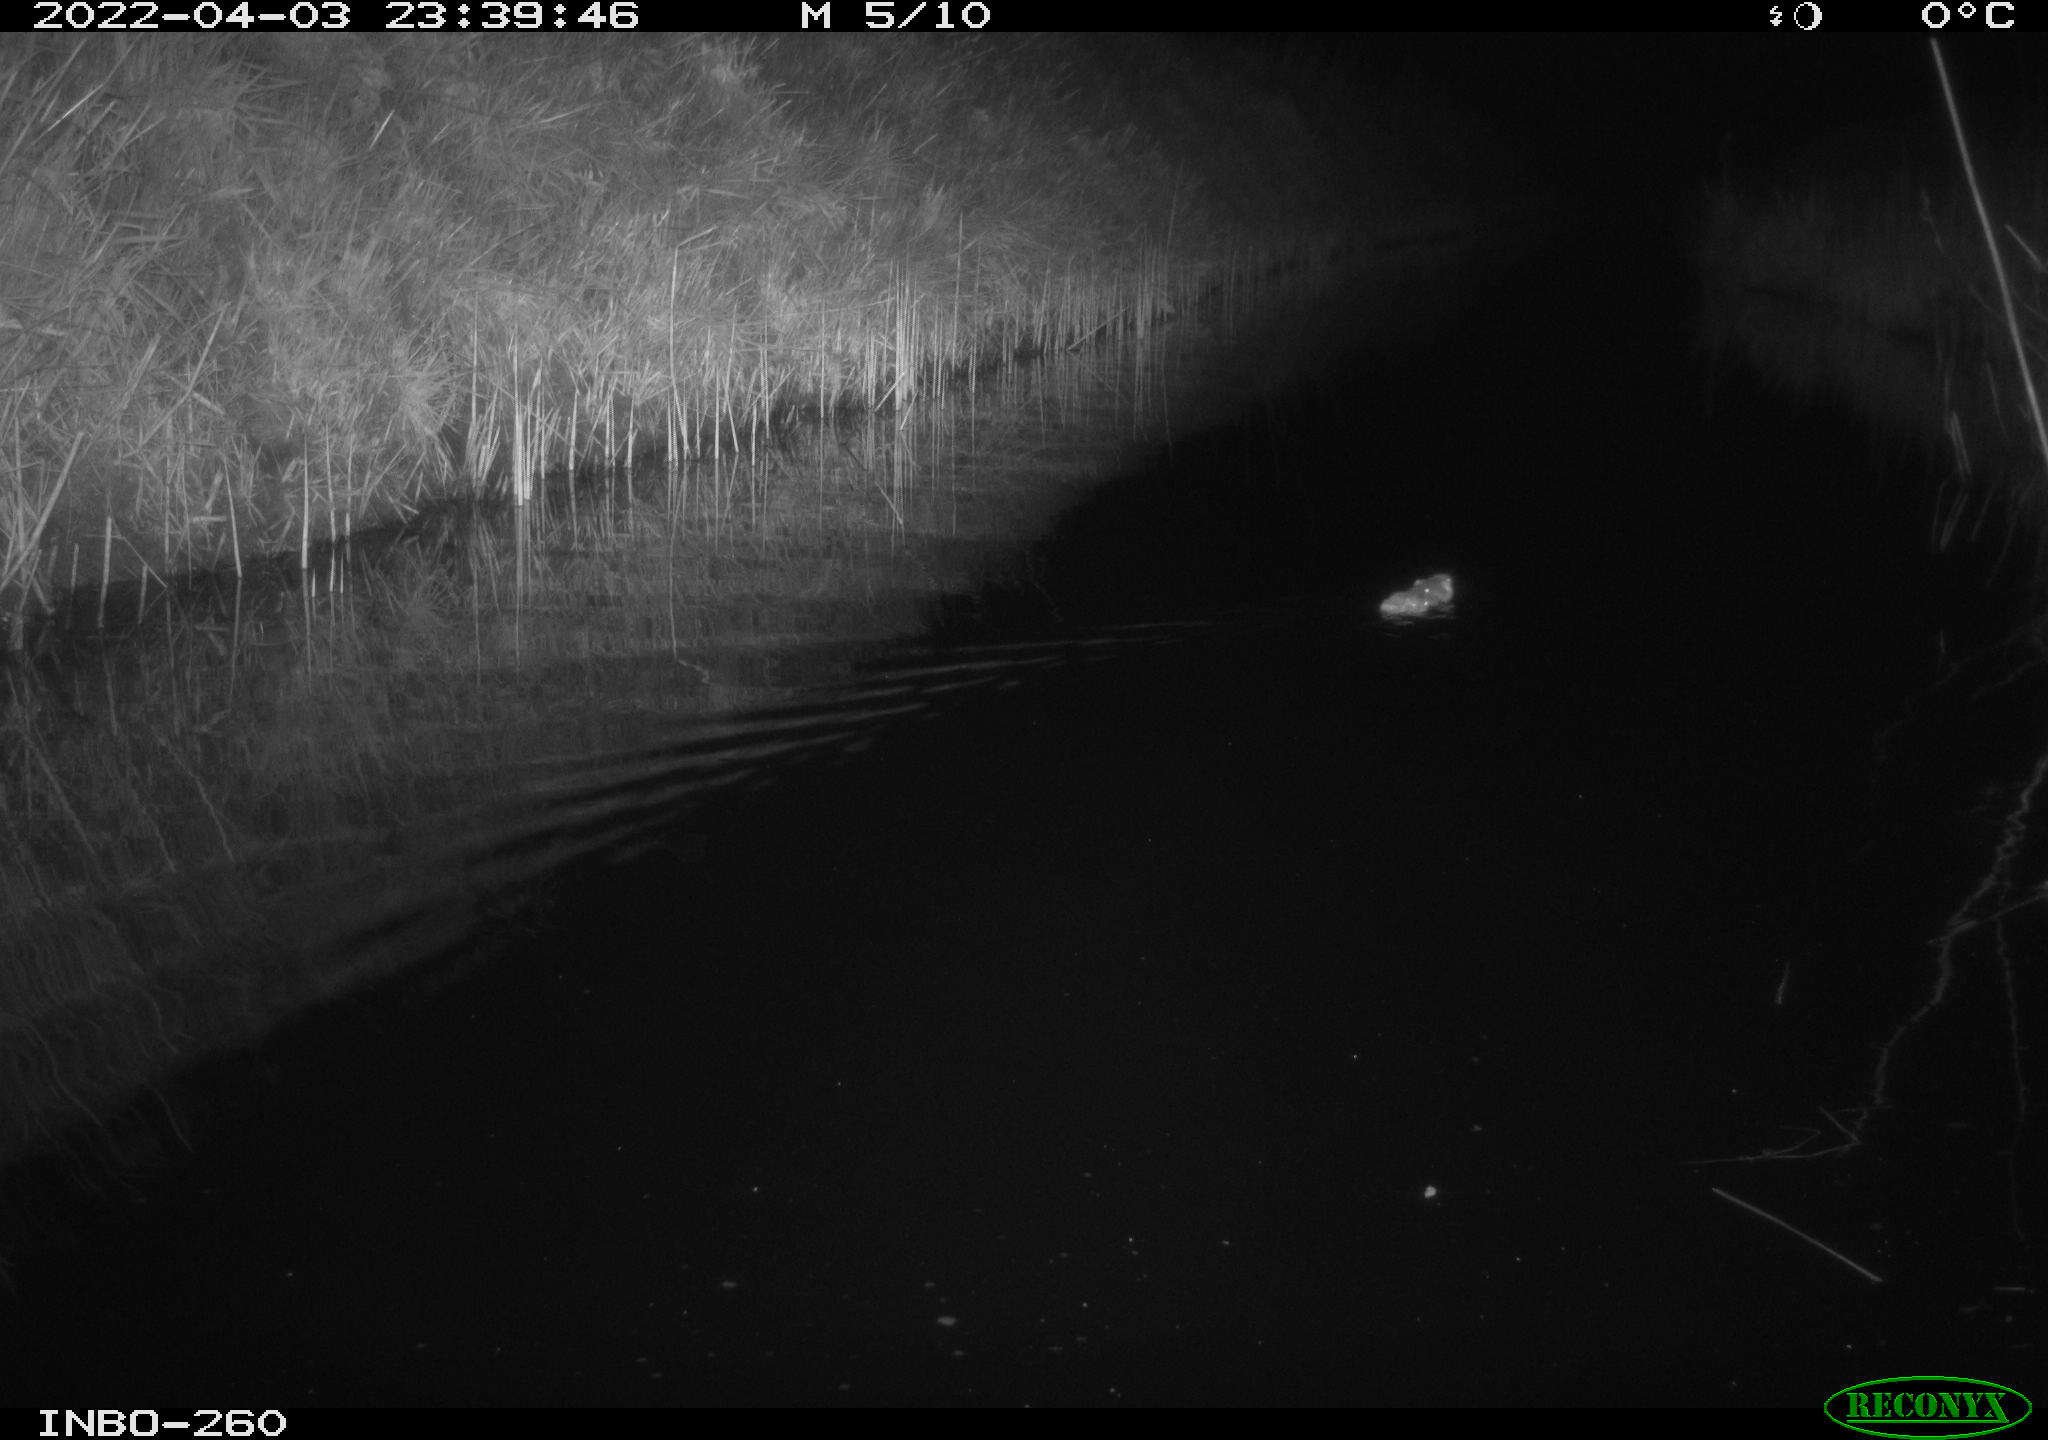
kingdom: Animalia
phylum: Chordata
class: Mammalia
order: Rodentia
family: Muridae
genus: Rattus
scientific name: Rattus norvegicus
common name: Brown rat
